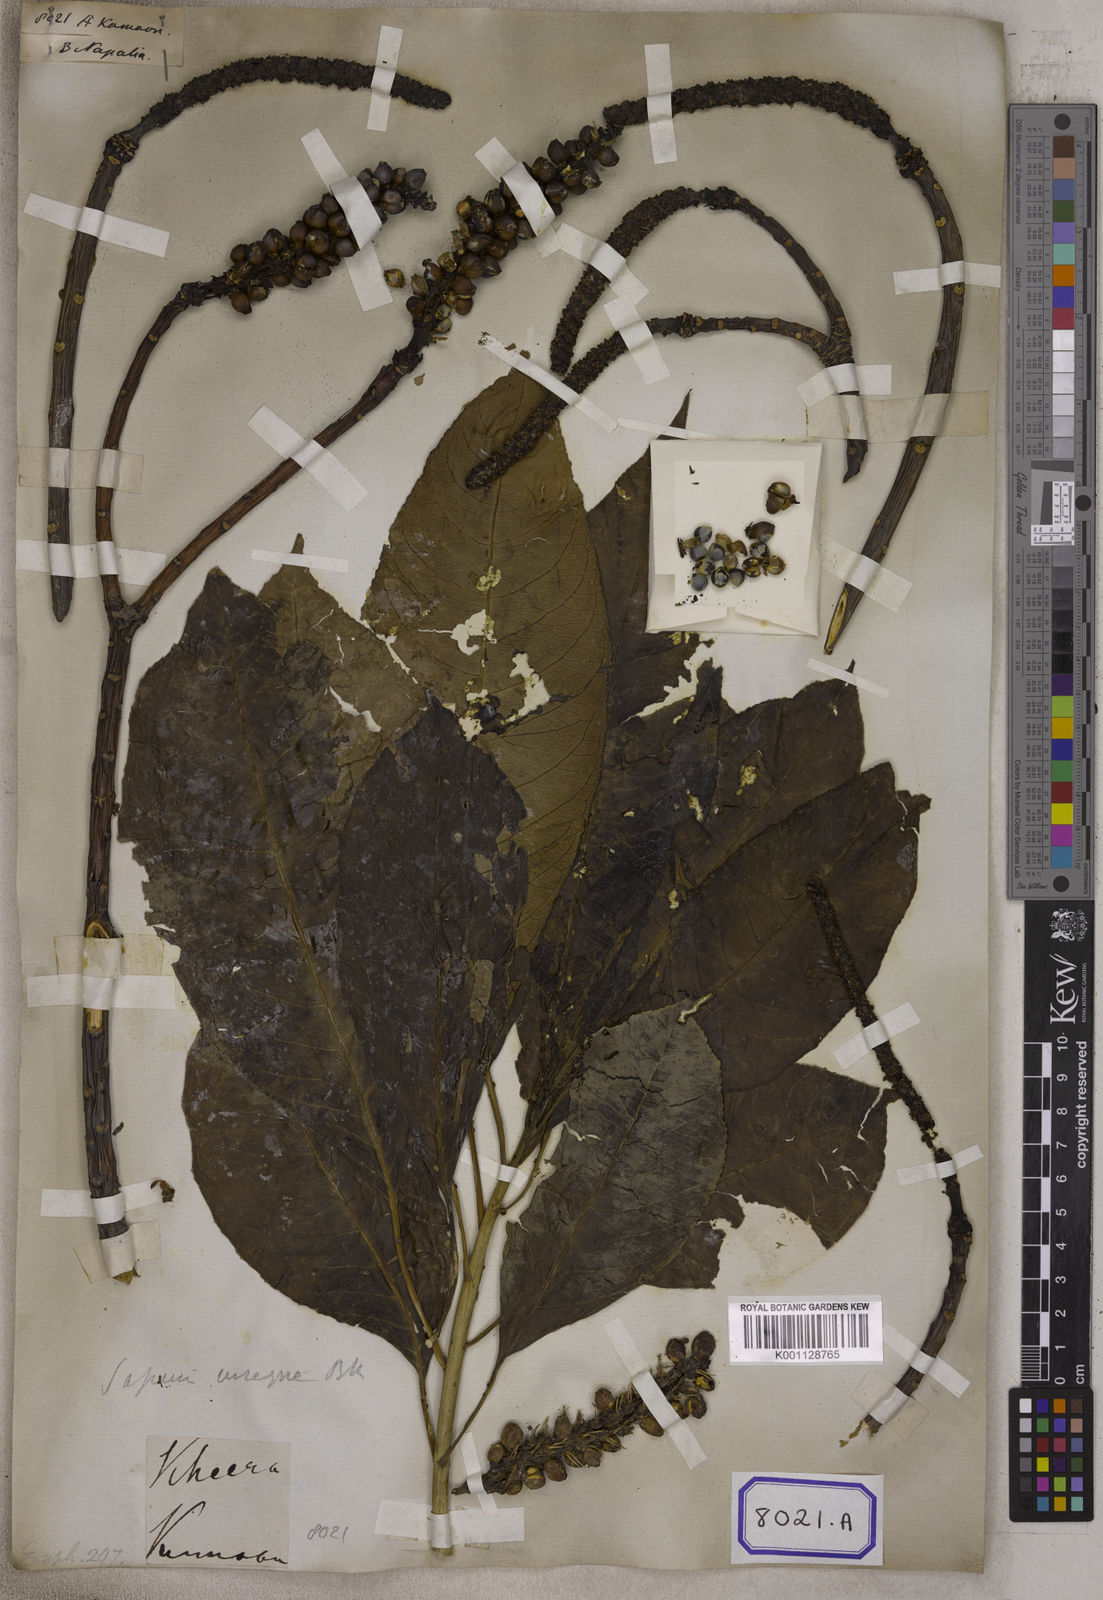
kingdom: Plantae
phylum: Tracheophyta
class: Magnoliopsida
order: Malpighiales
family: Euphorbiaceae
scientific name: Euphorbiaceae
